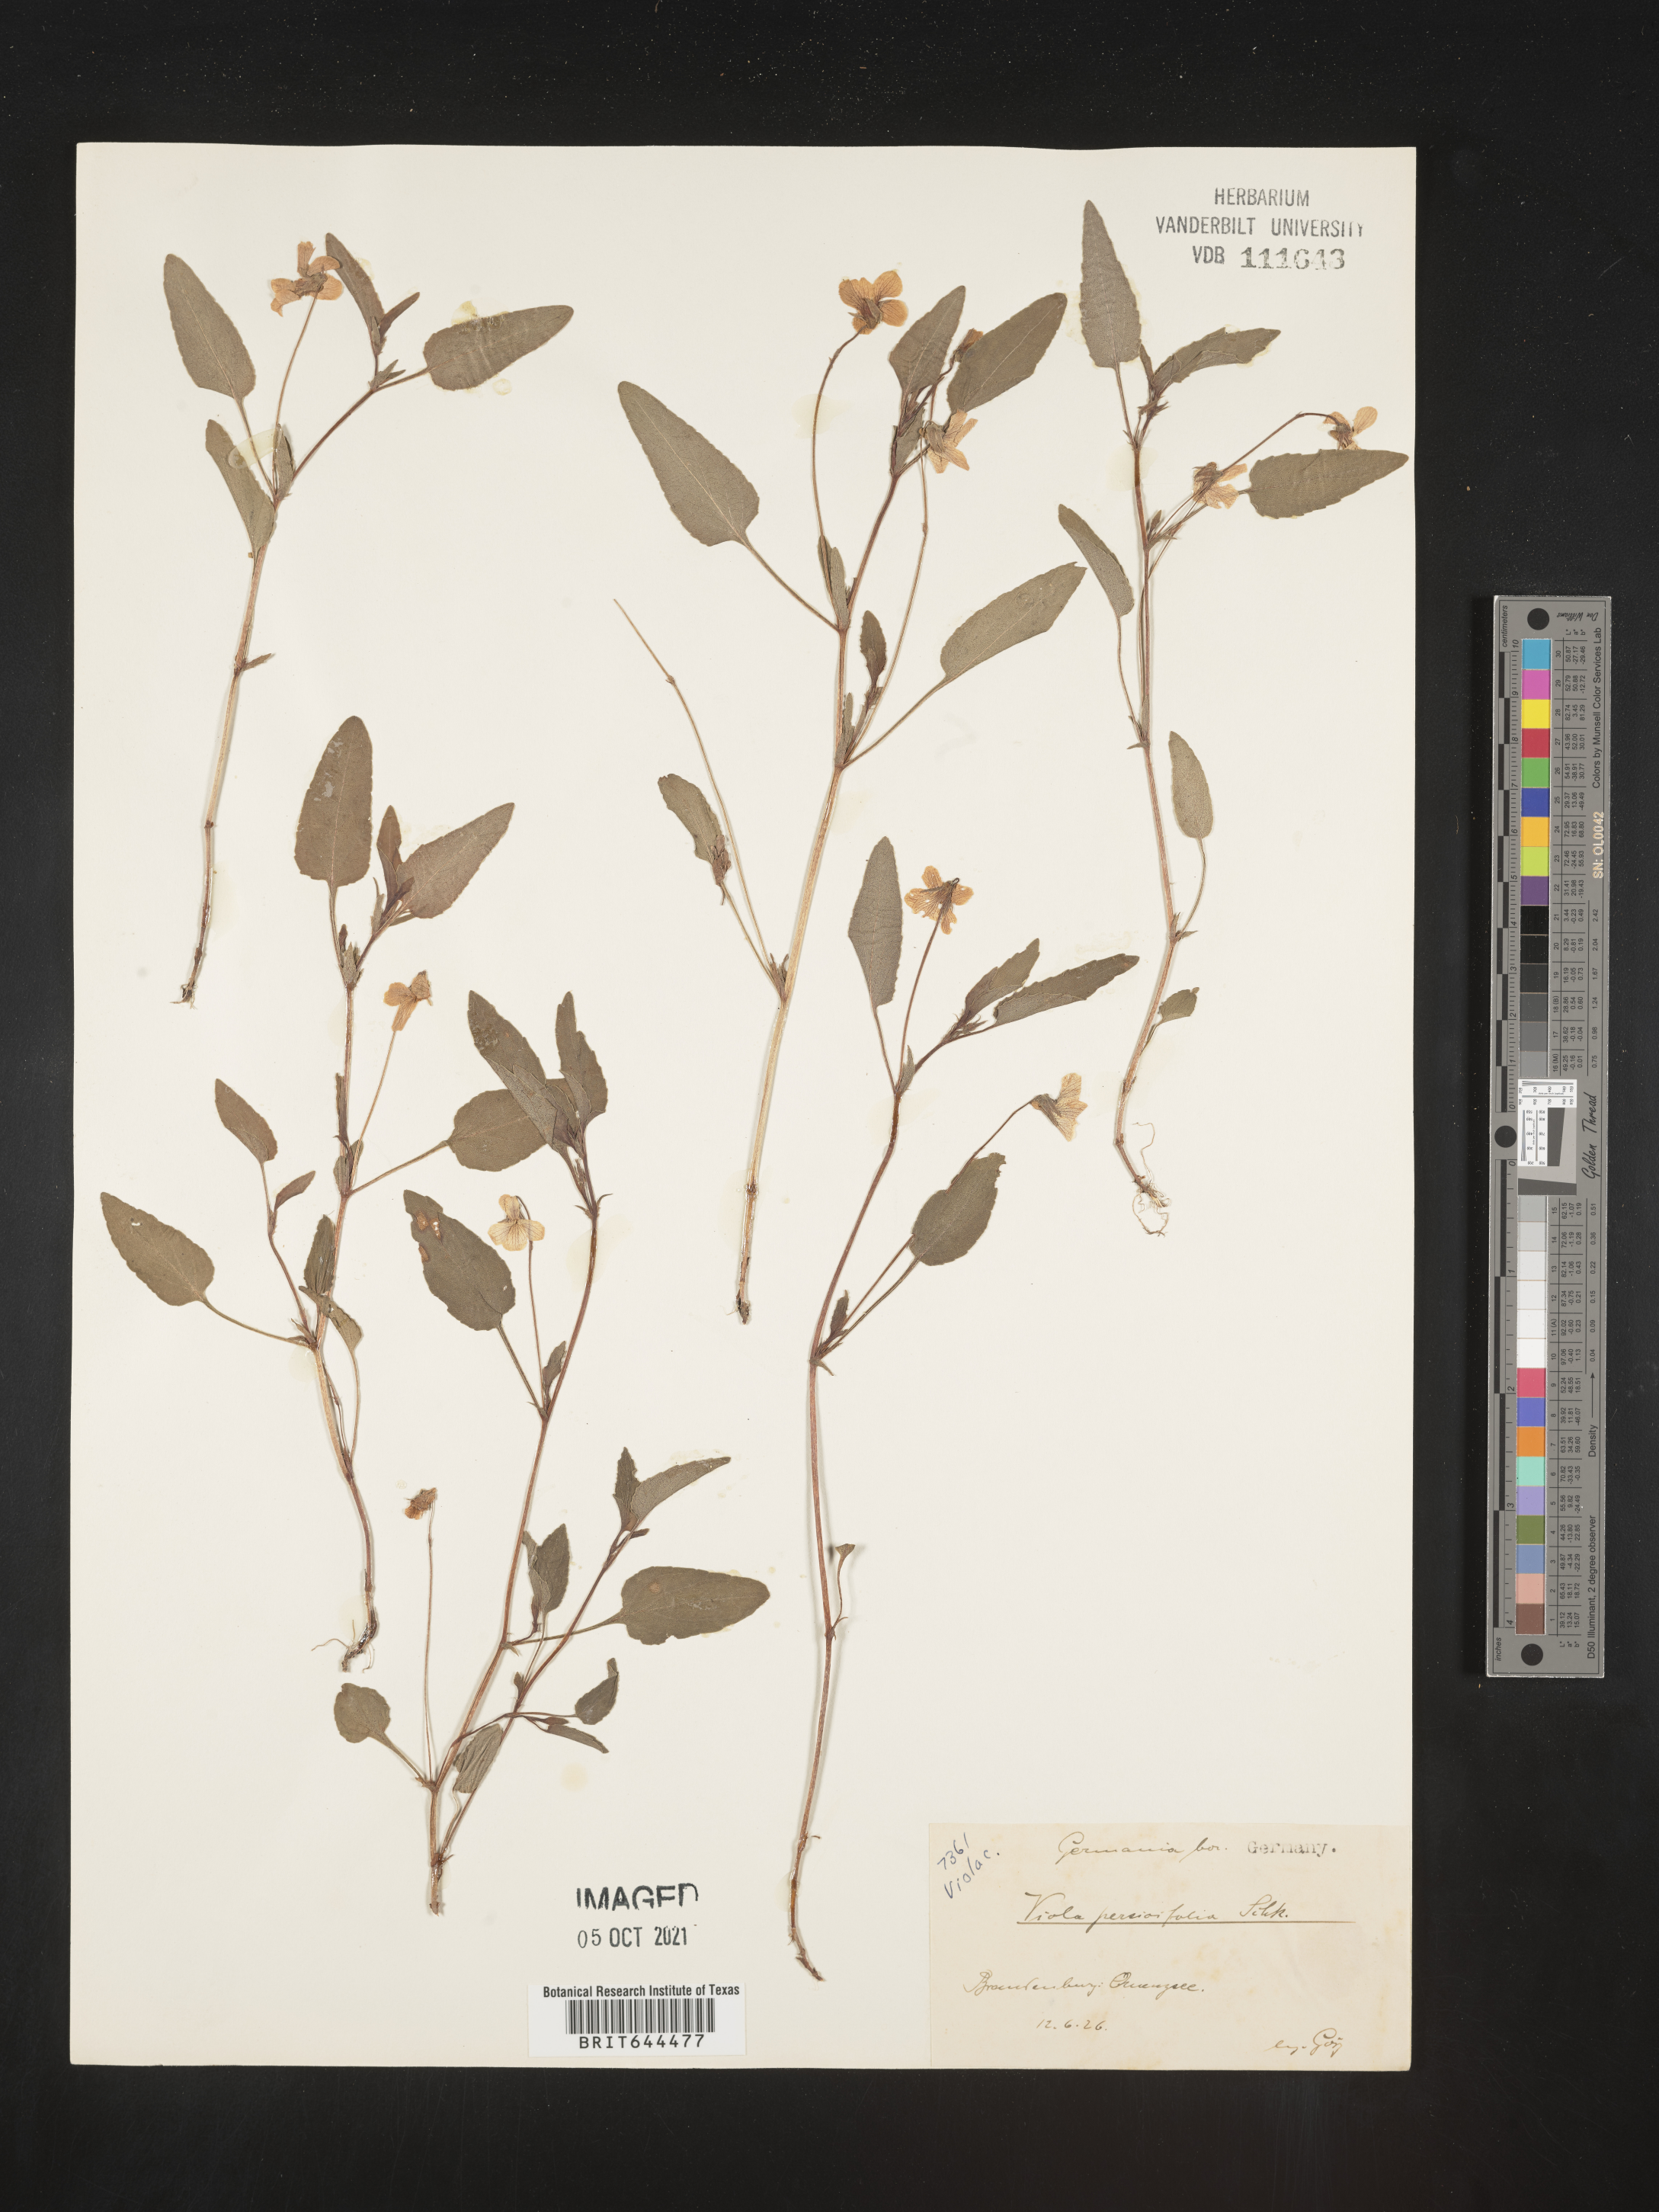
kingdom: Plantae
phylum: Tracheophyta
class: Magnoliopsida
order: Malpighiales
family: Violaceae
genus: Viola
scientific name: Viola
